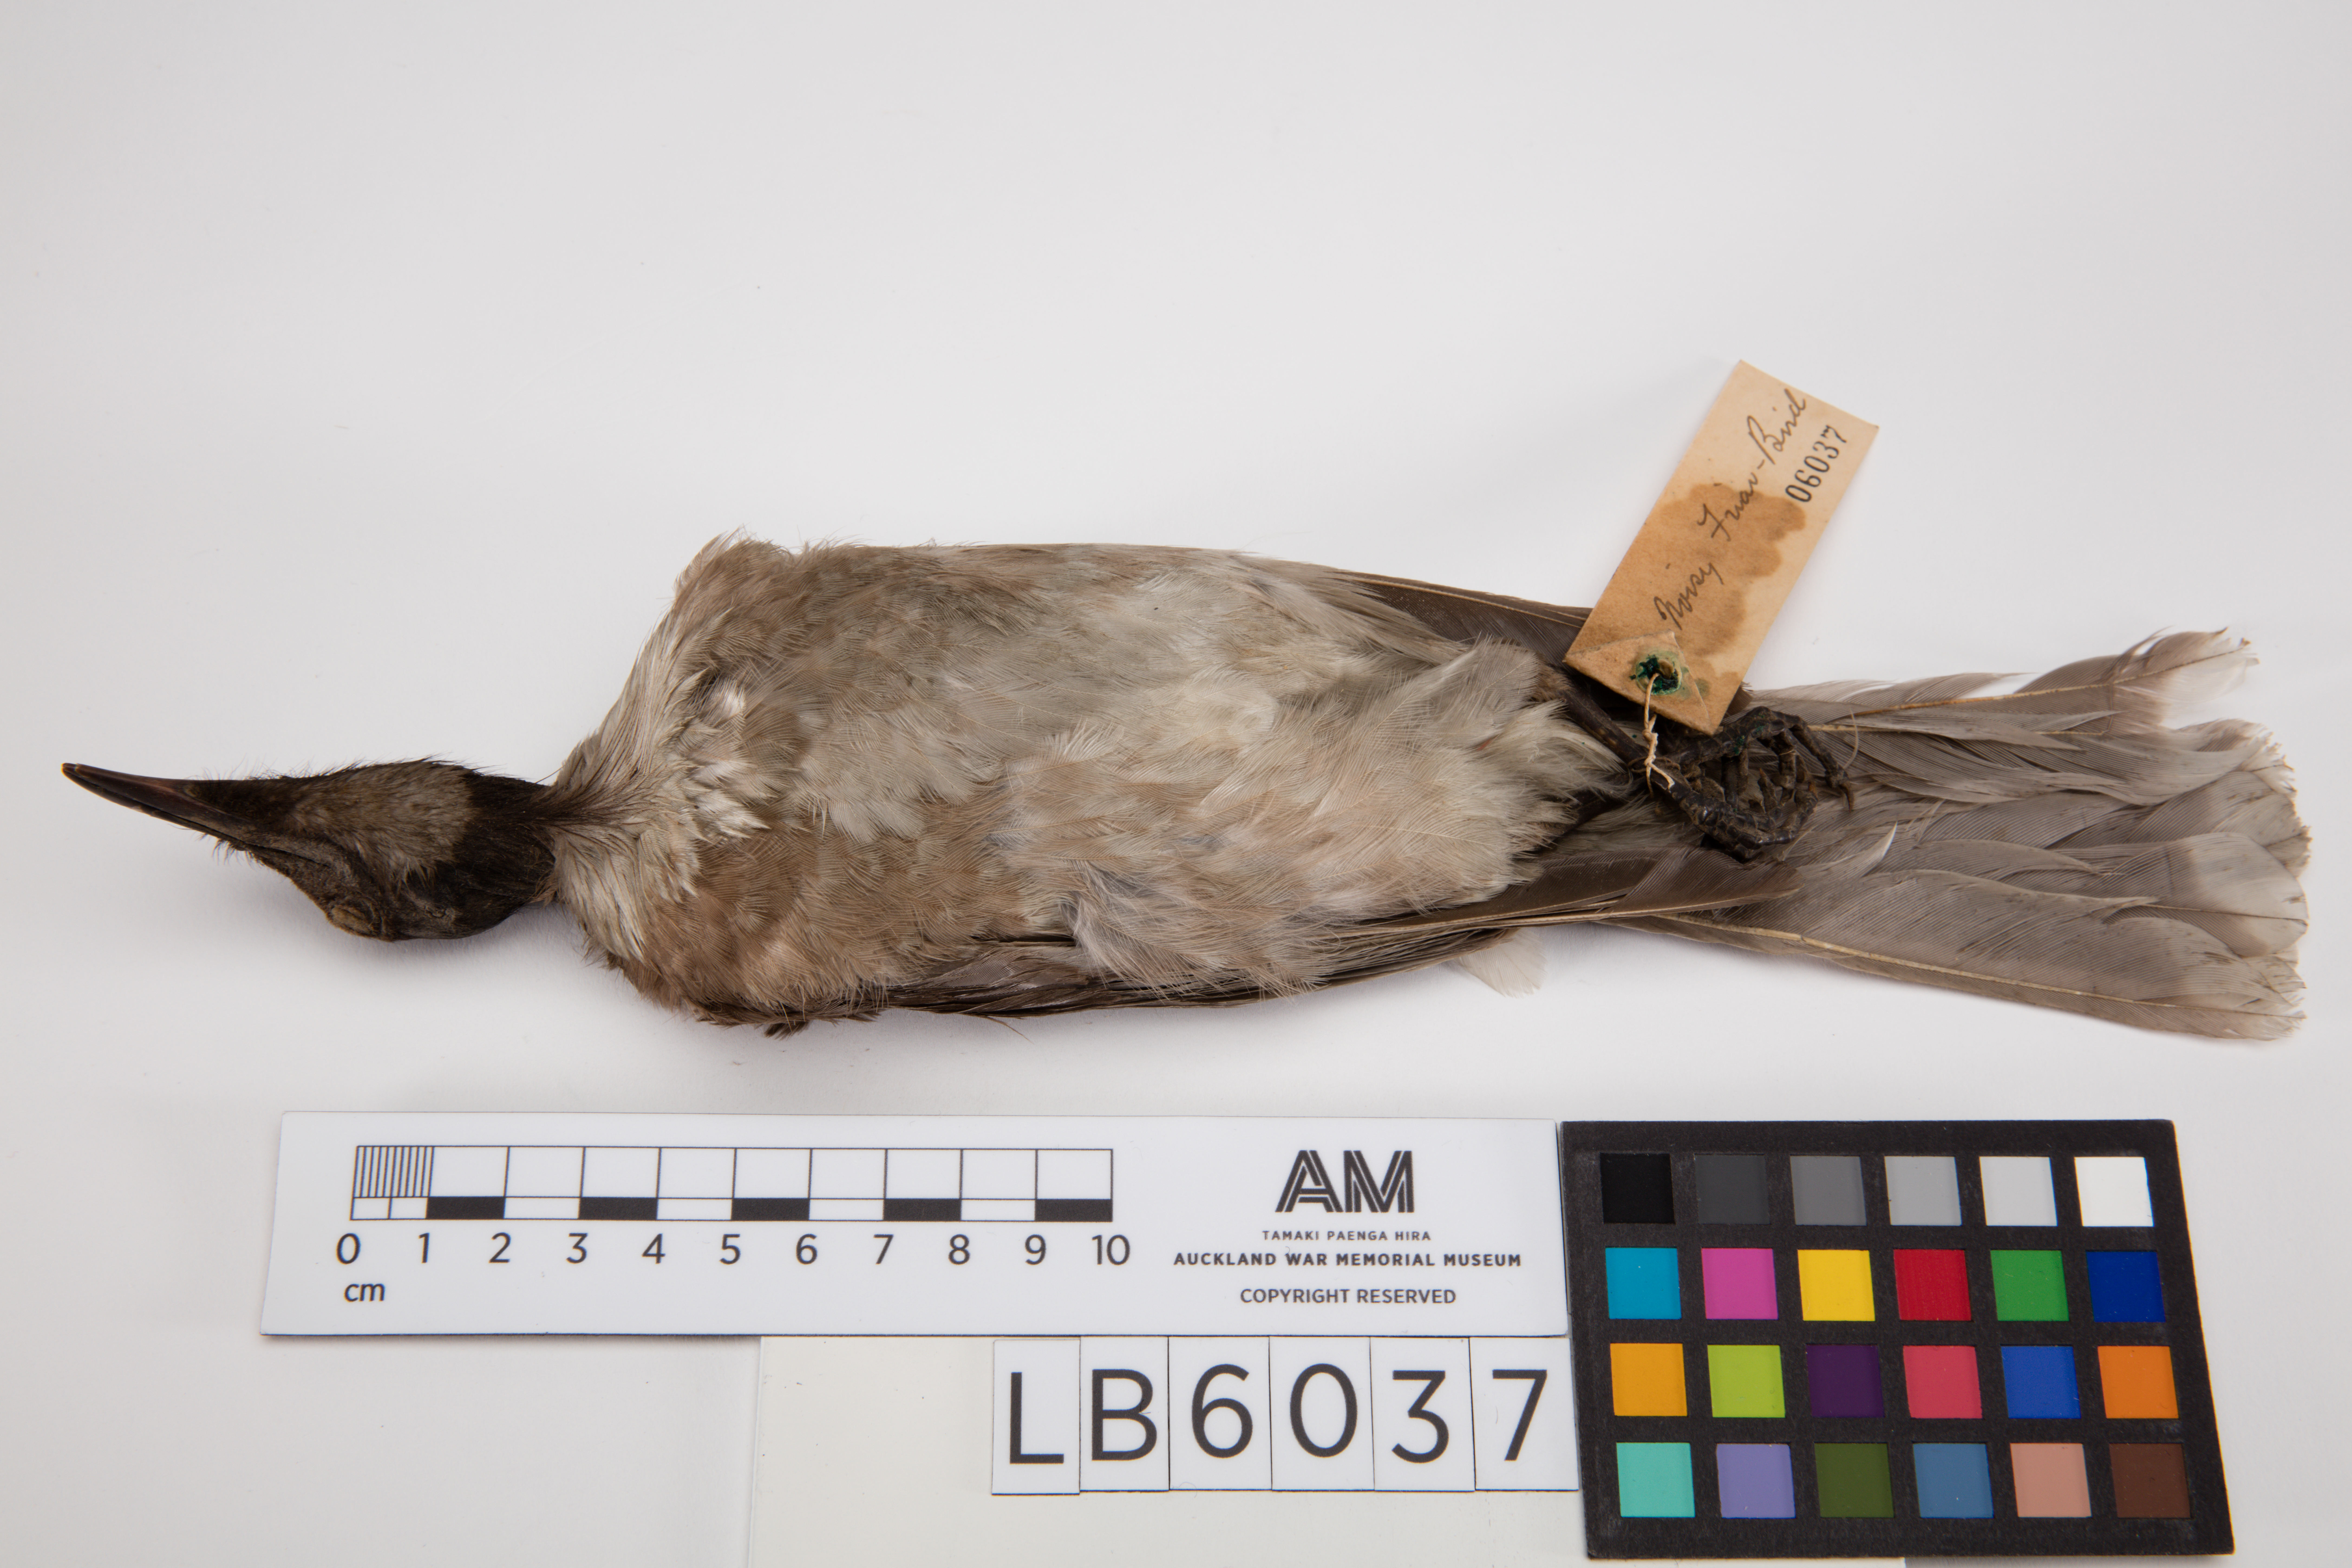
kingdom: Animalia
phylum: Chordata
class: Aves
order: Passeriformes
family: Meliphagidae
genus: Philemon
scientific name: Philemon corniculatus
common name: Noisy friarbird
